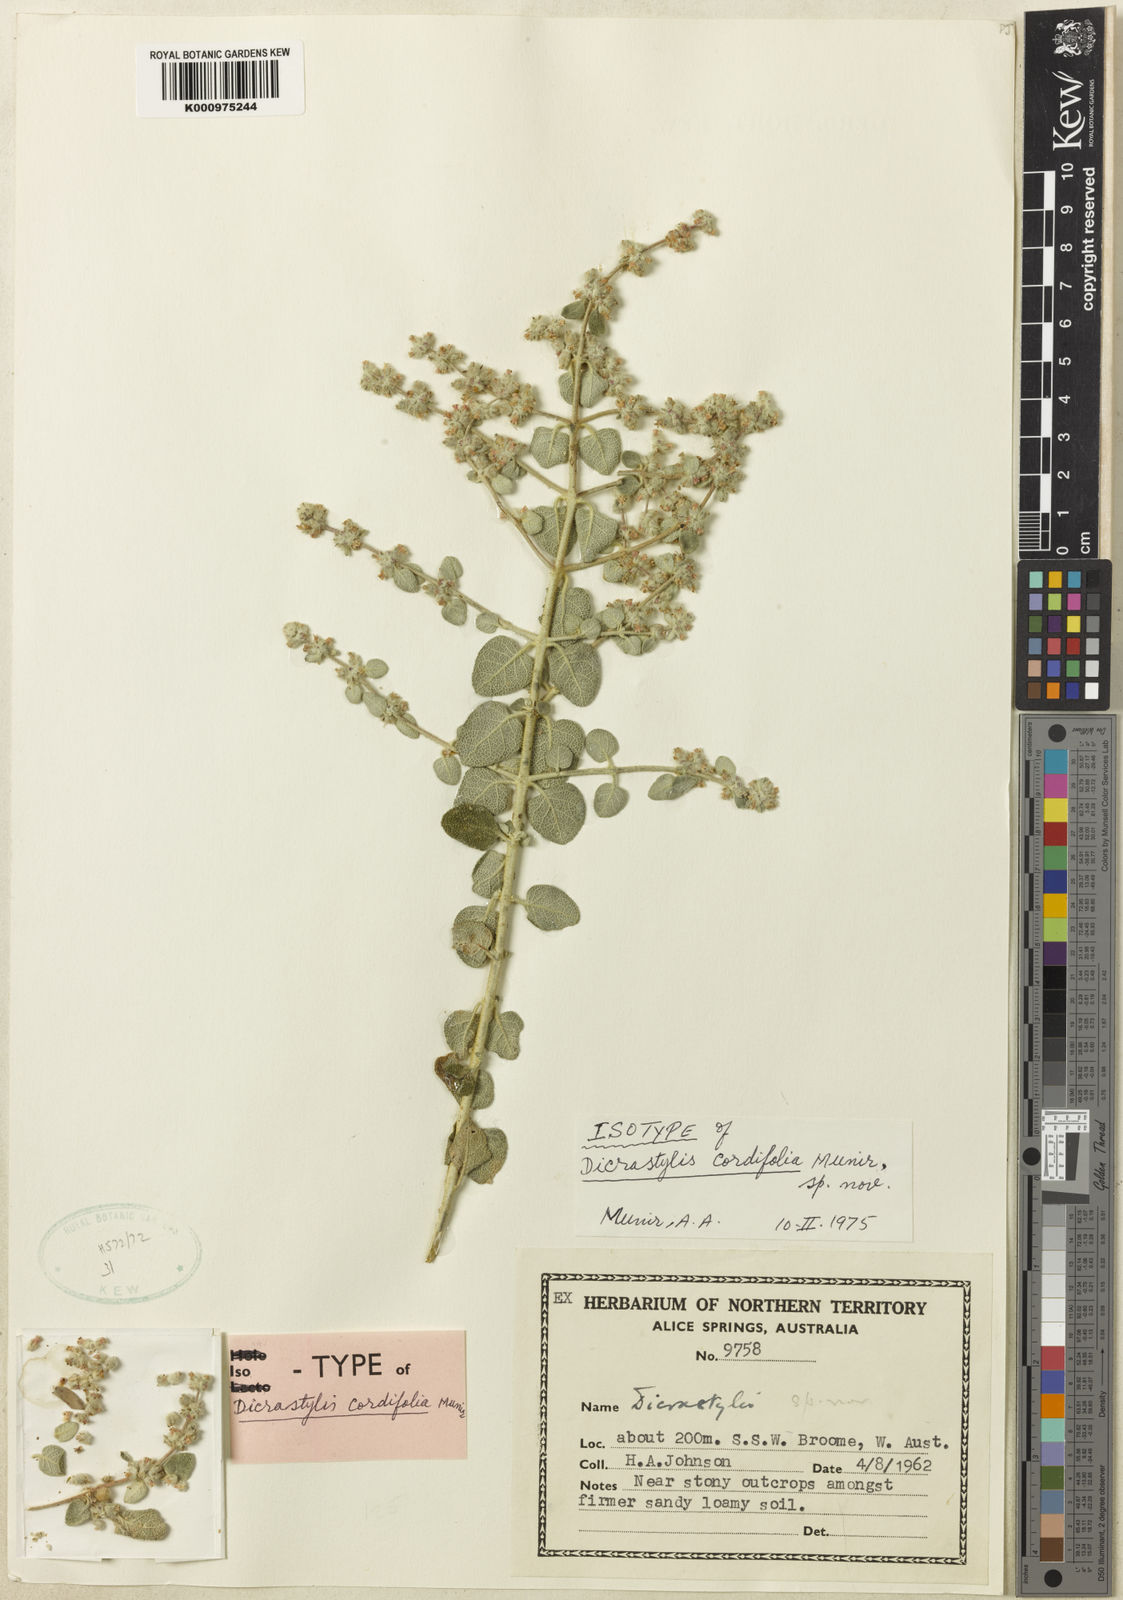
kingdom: Plantae
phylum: Tracheophyta
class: Magnoliopsida
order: Lamiales
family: Lamiaceae
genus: Dicrastylis
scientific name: Dicrastylis cordifolia
